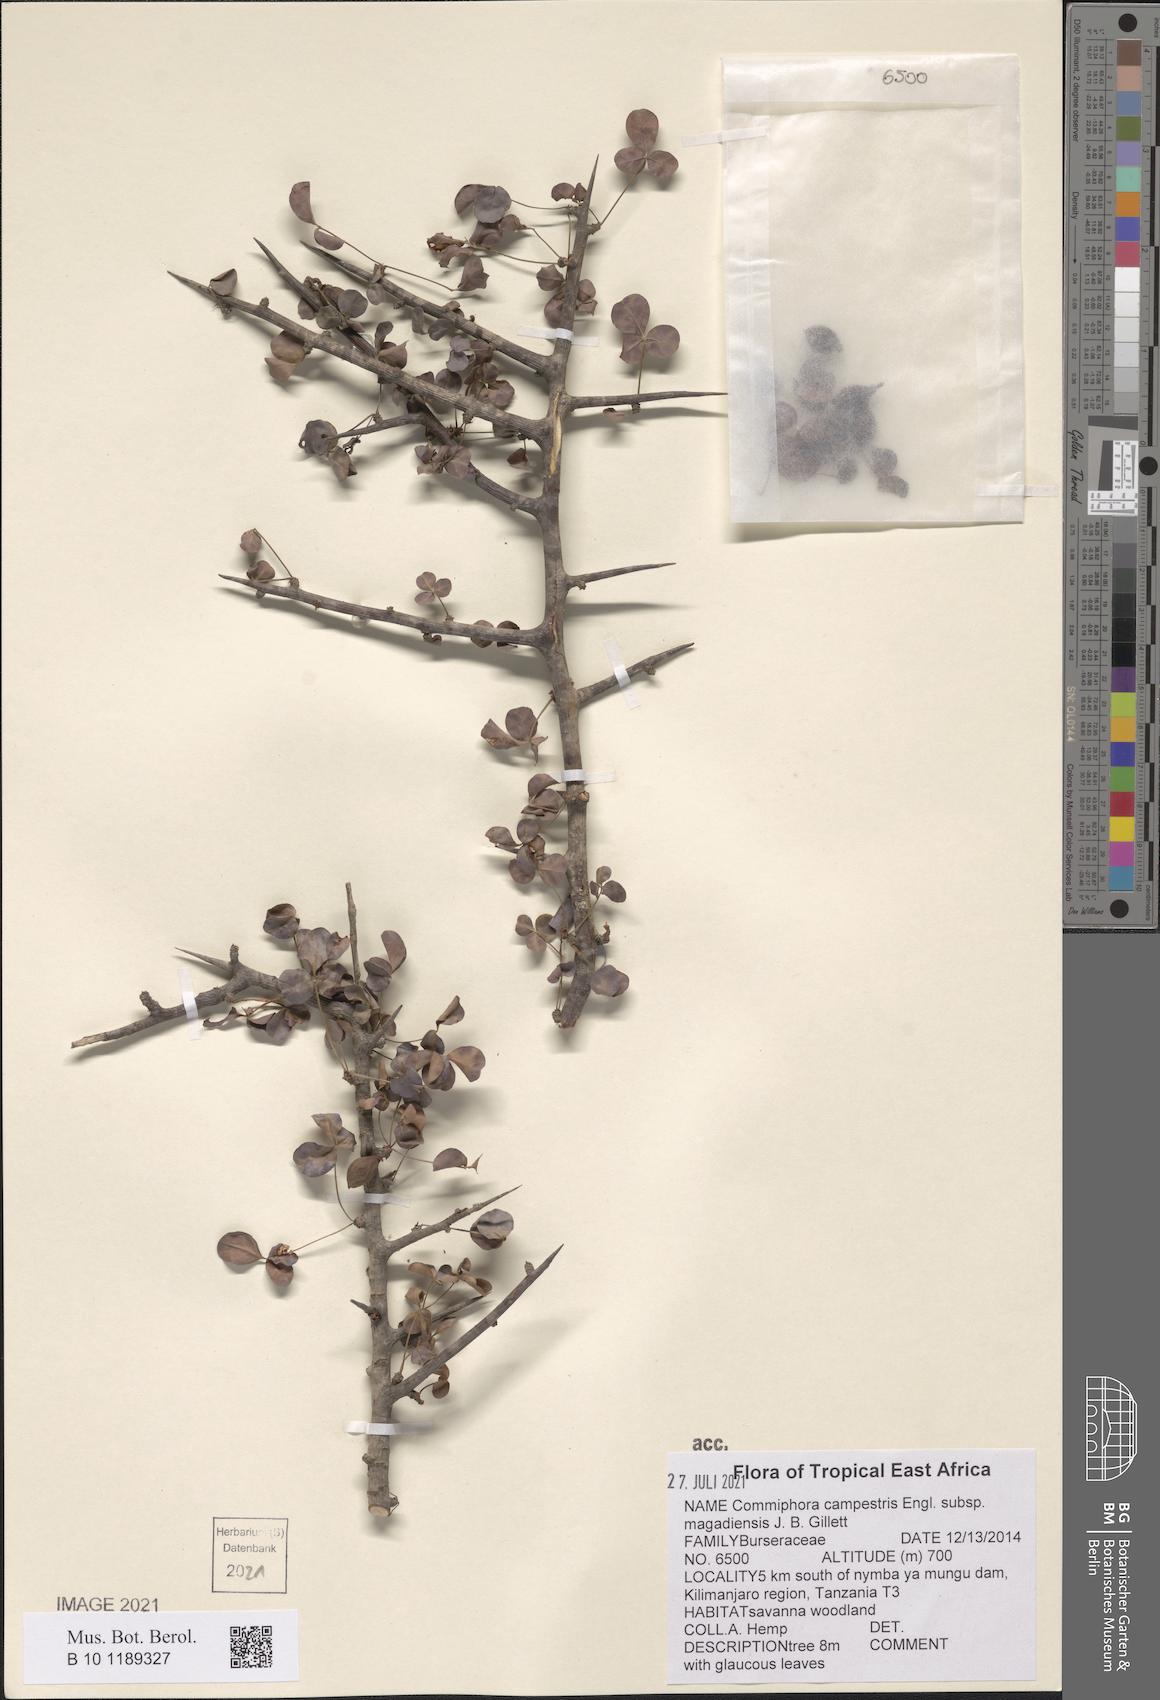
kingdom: Plantae
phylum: Tracheophyta
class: Magnoliopsida
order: Sapindales
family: Burseraceae
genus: Commiphora
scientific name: Commiphora campestris
